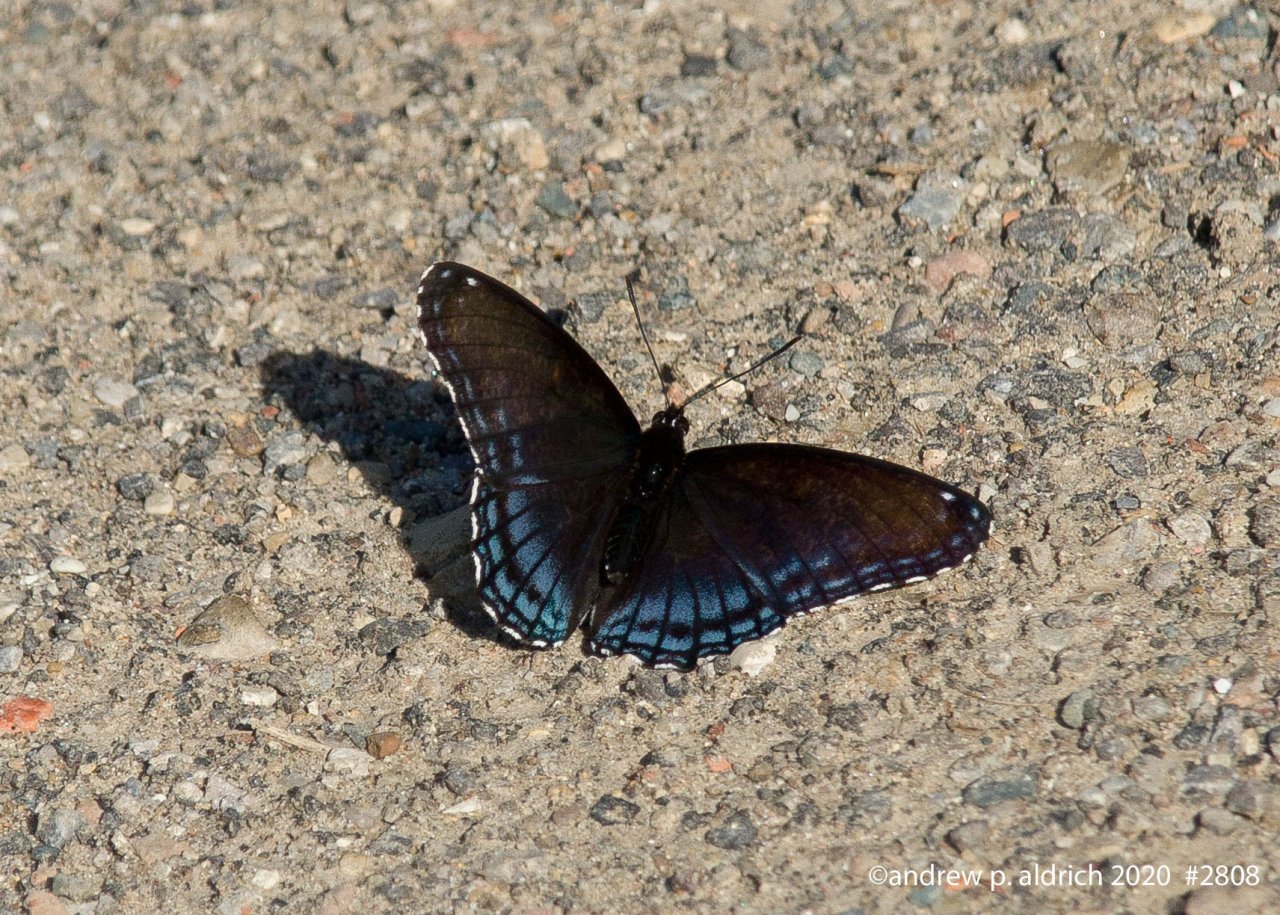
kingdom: Animalia
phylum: Arthropoda
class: Insecta
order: Lepidoptera
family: Nymphalidae
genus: Limenitis
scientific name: Limenitis astyanax
